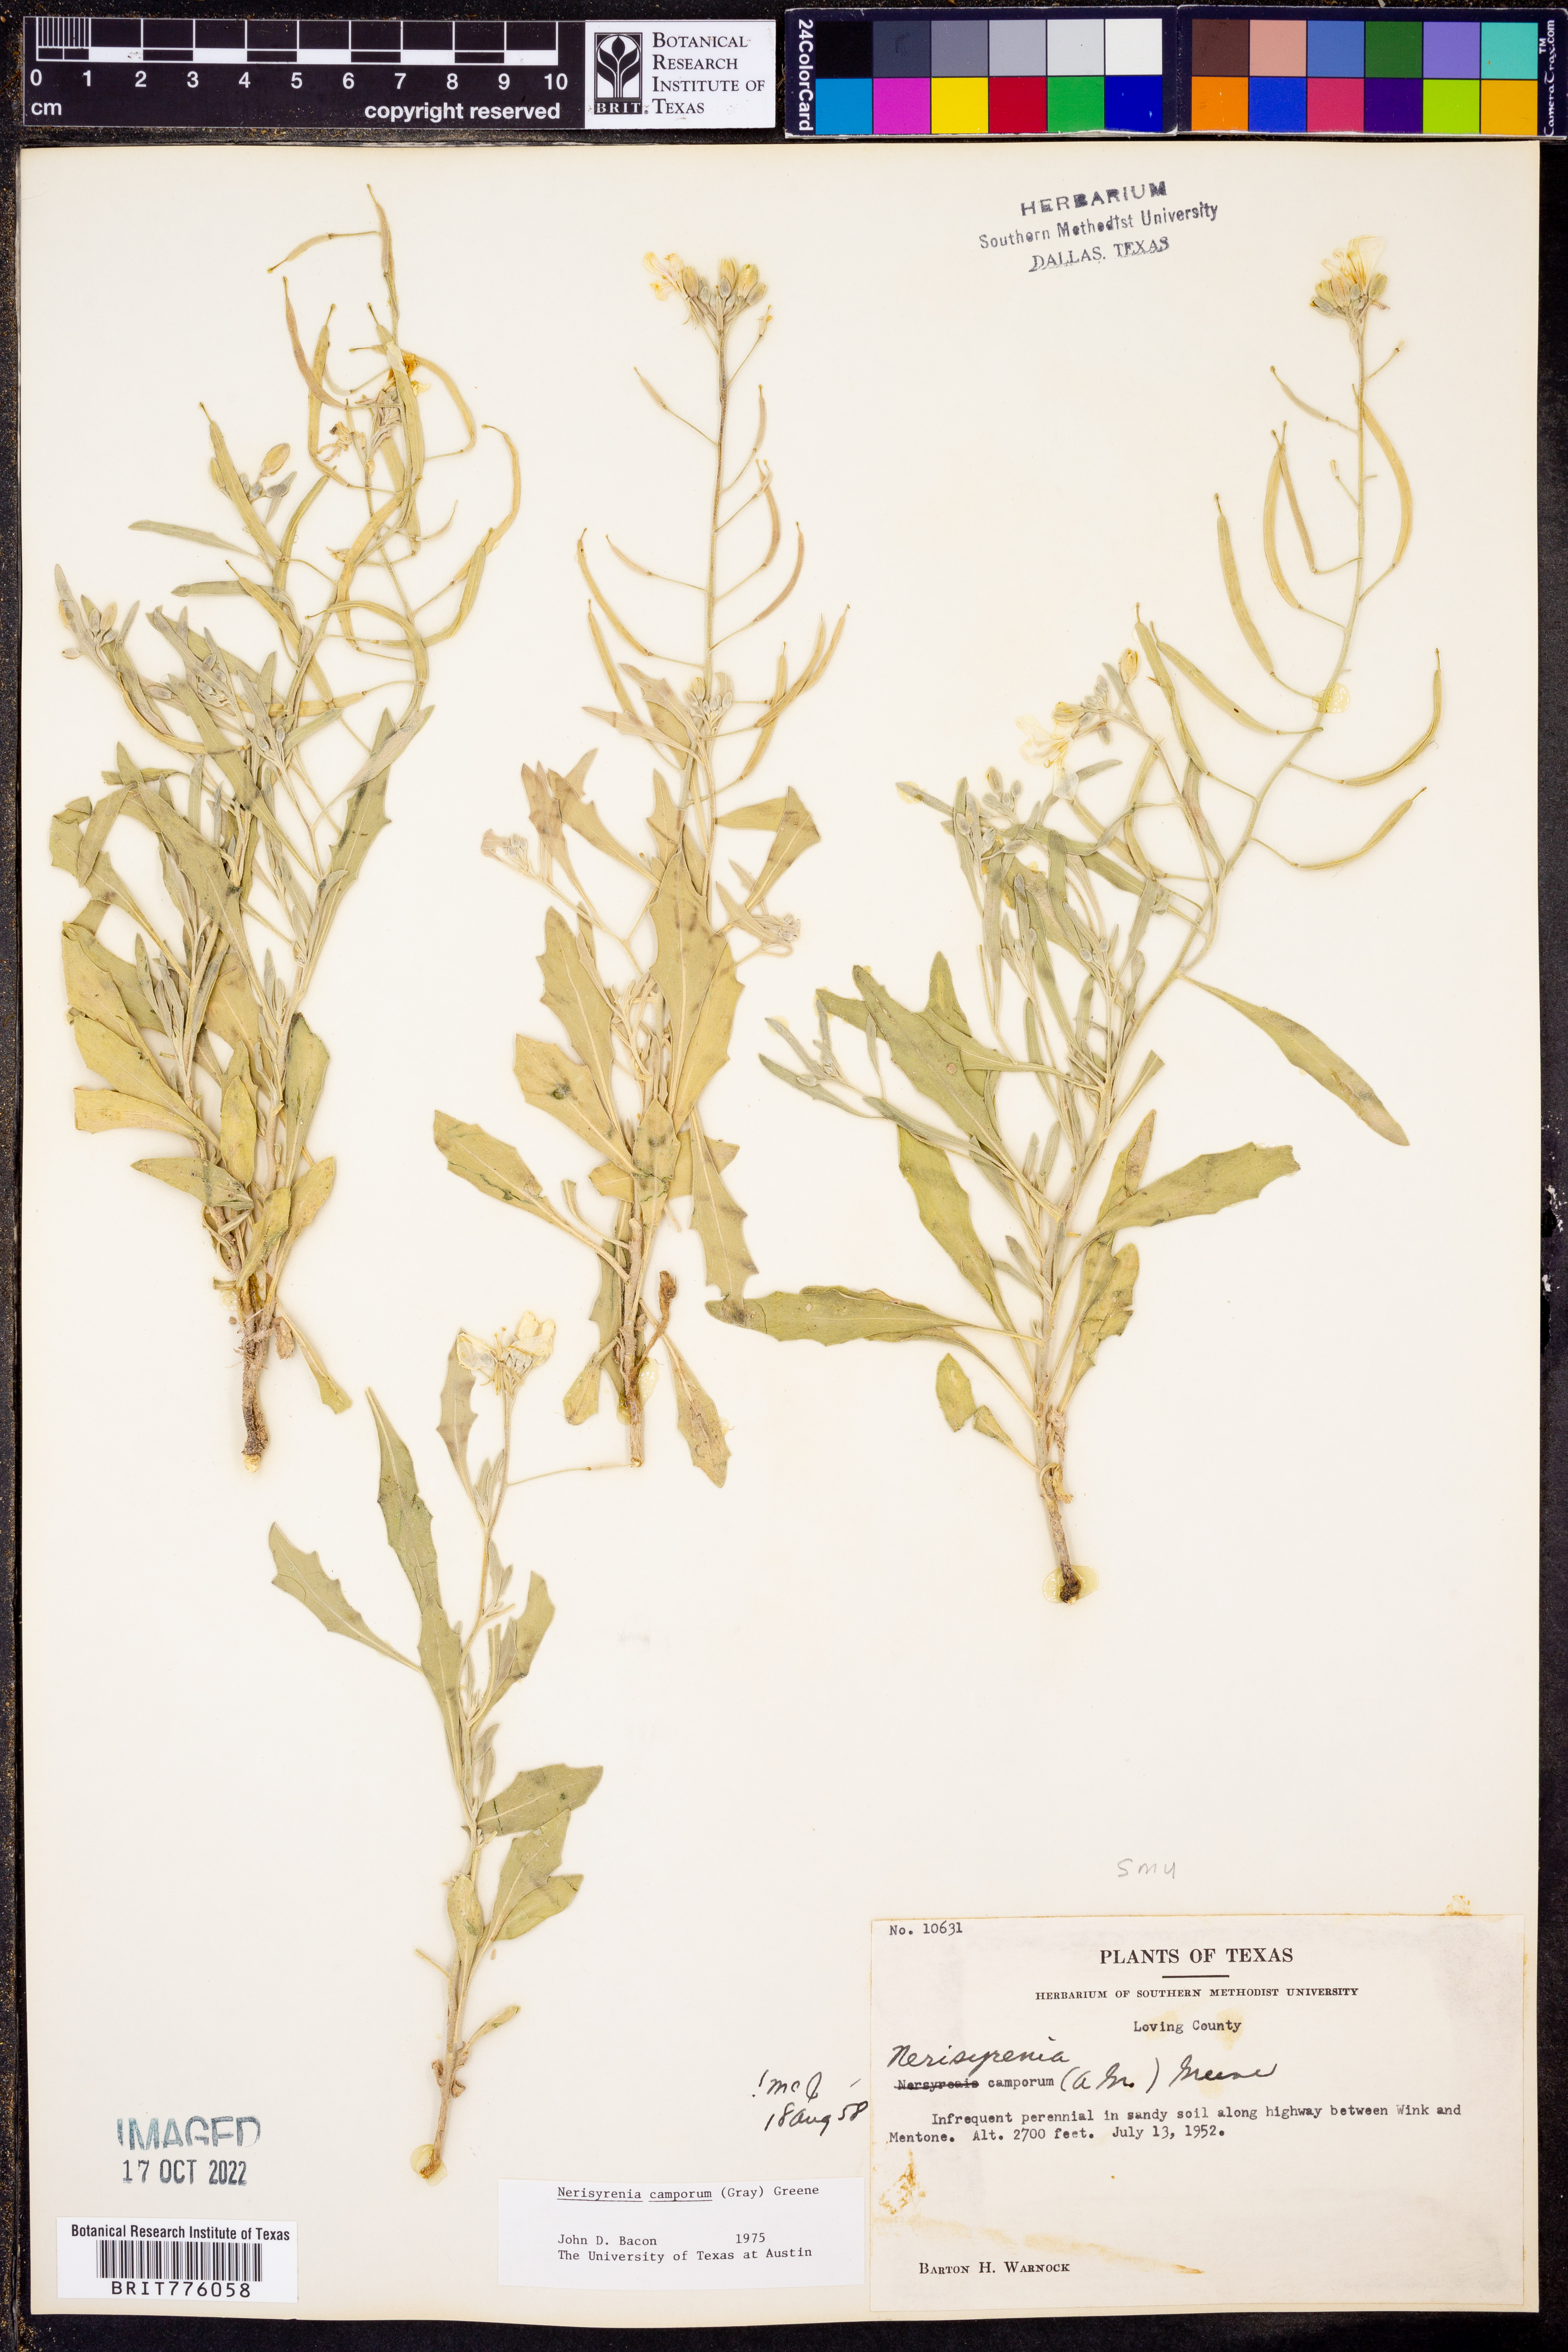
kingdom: Plantae
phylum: Tracheophyta
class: Magnoliopsida
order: Brassicales
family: Brassicaceae
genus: Nerisyrenia
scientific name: Nerisyrenia camporum
